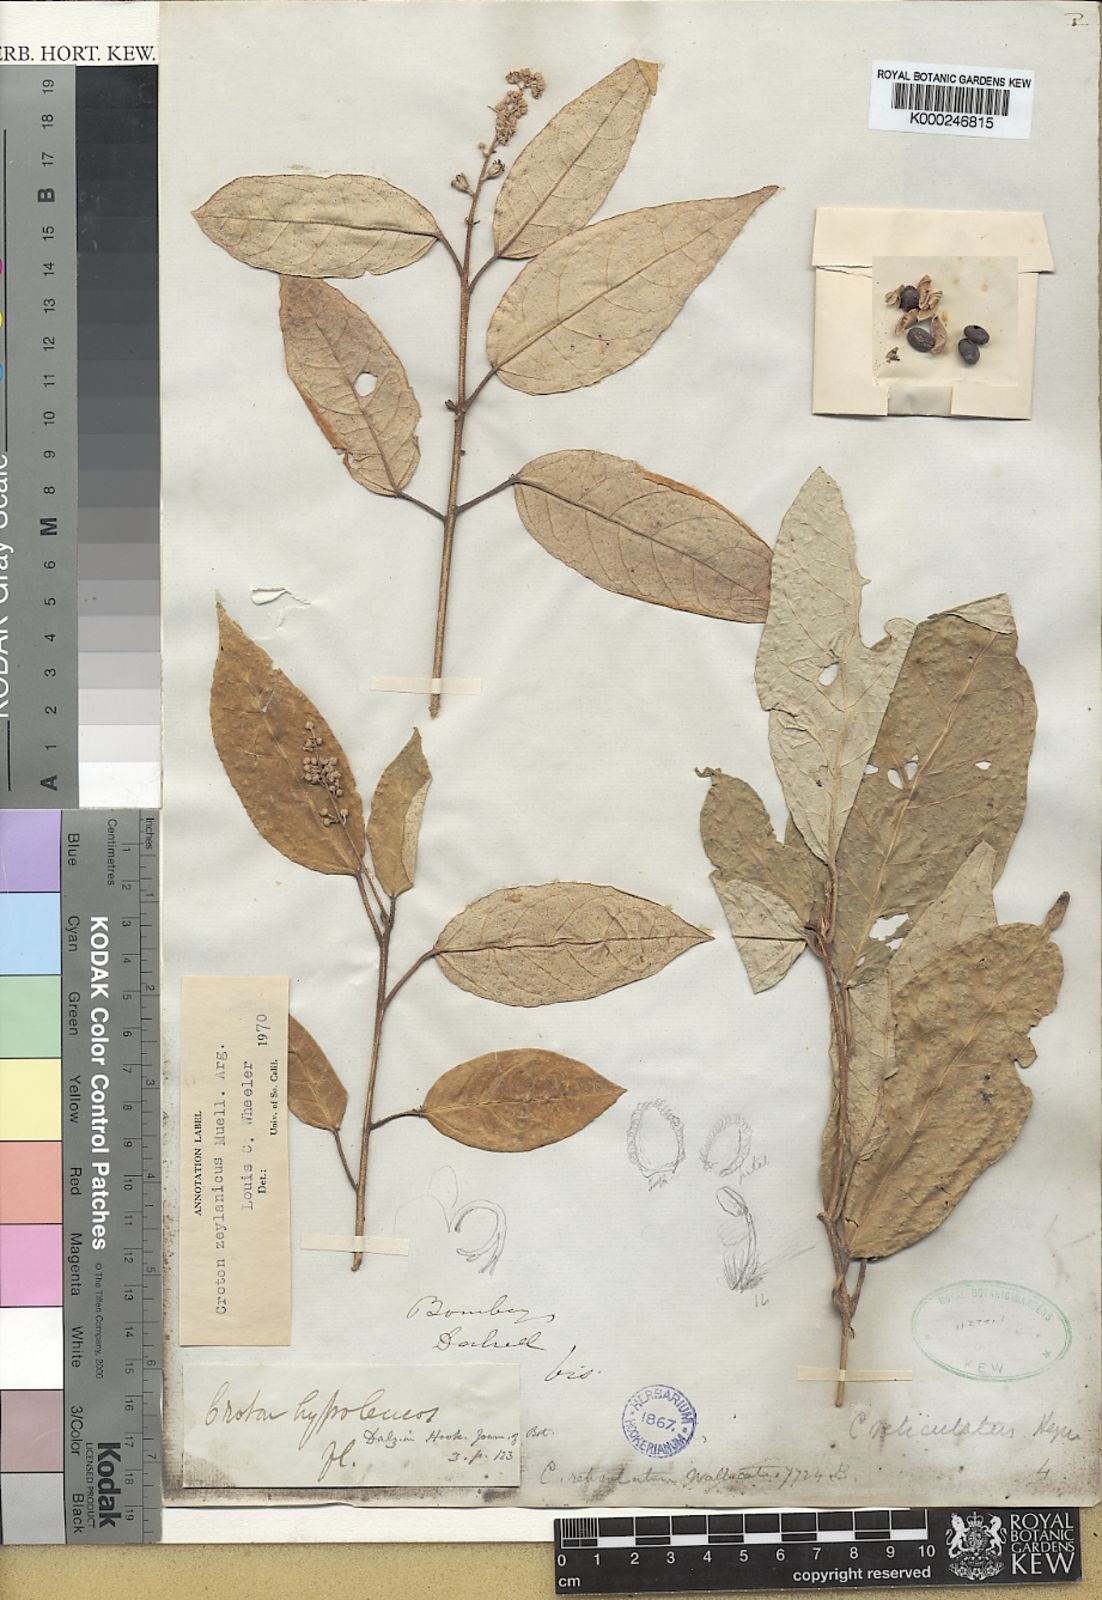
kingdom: Plantae
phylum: Tracheophyta
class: Magnoliopsida
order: Malpighiales
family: Euphorbiaceae
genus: Croton
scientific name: Croton
